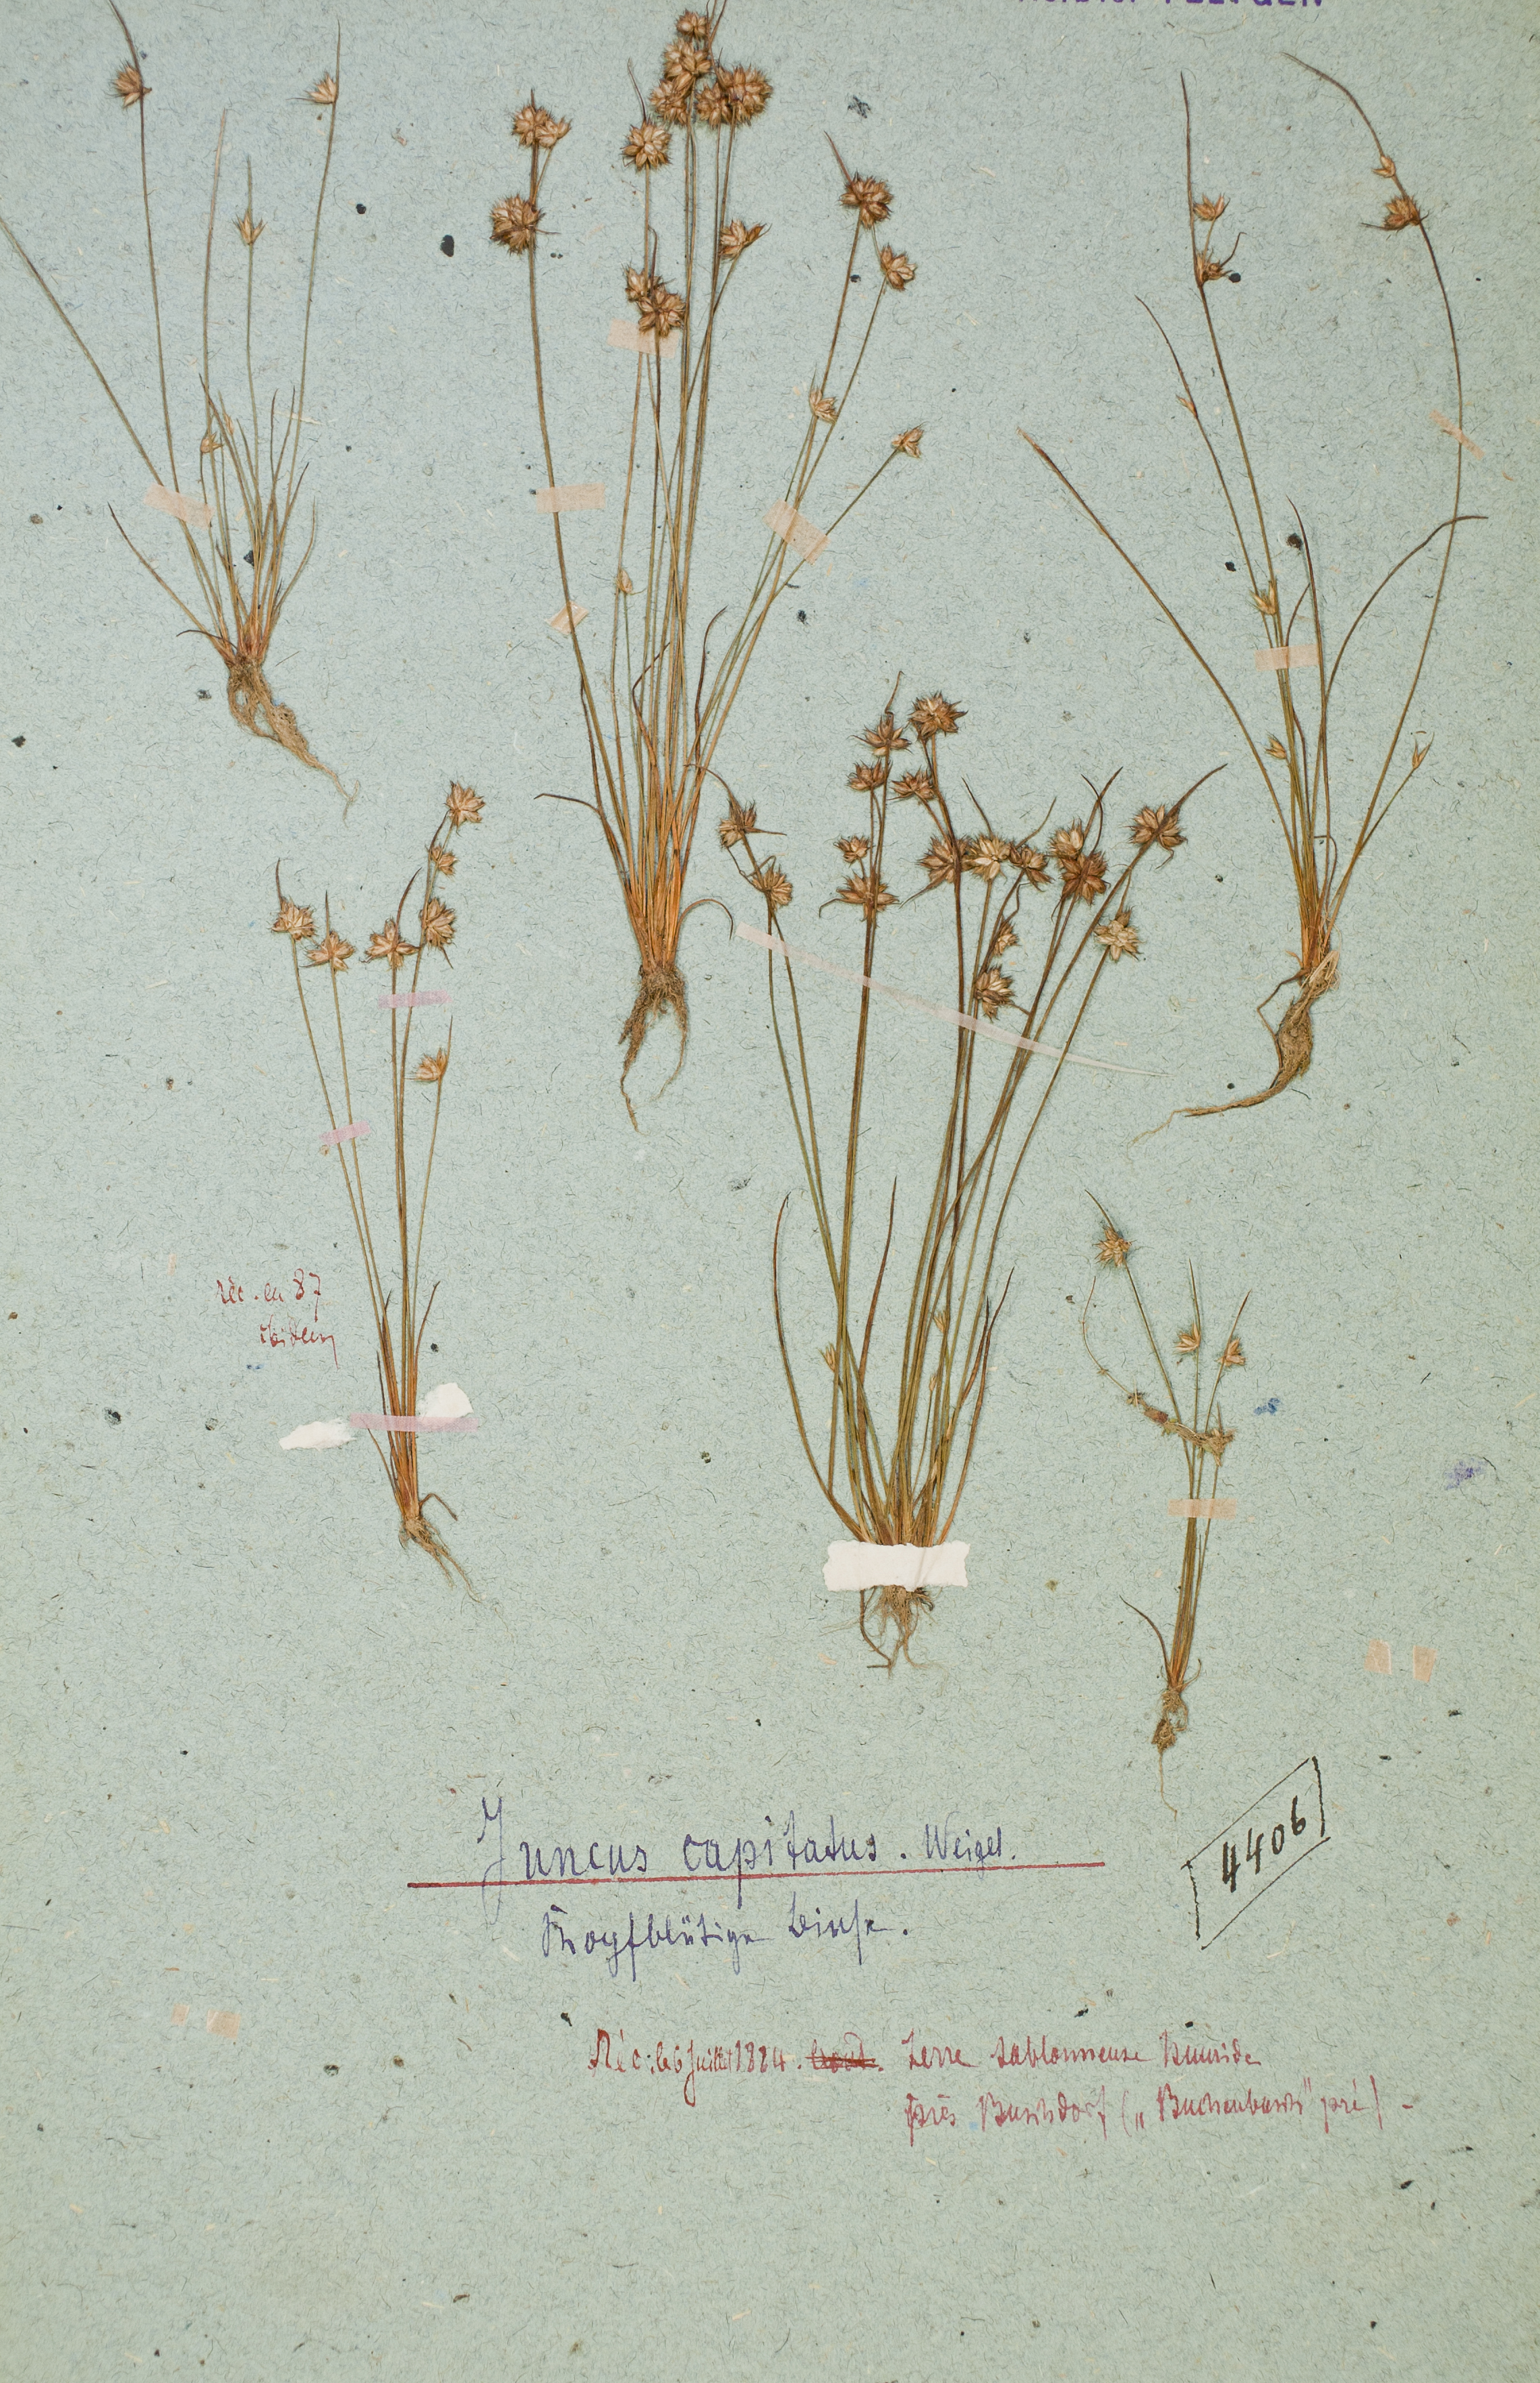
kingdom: Plantae
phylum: Tracheophyta
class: Liliopsida
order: Poales
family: Juncaceae
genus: Juncus
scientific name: Juncus capitatus
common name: Dwarf rush
